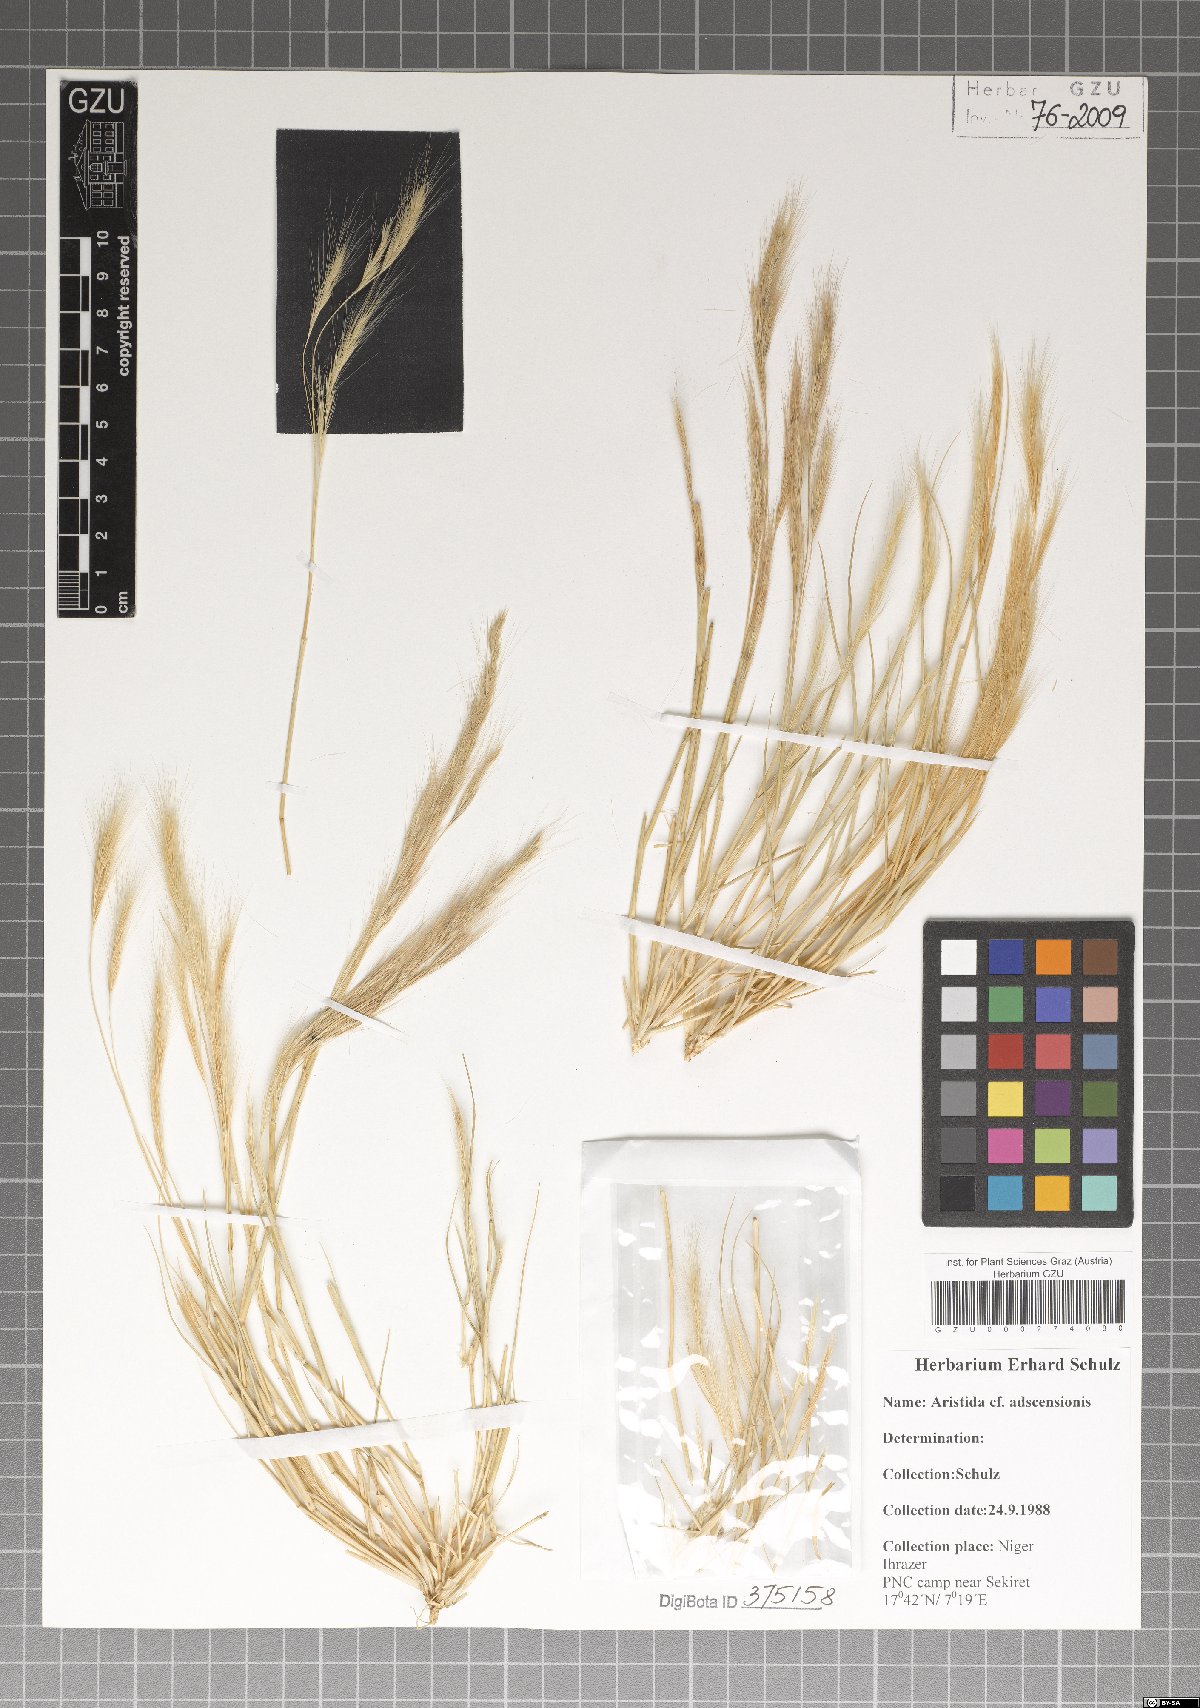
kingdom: Plantae
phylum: Tracheophyta
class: Liliopsida
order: Poales
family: Poaceae
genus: Aristida
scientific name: Aristida adscensionis
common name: Sixweeks threeawn
